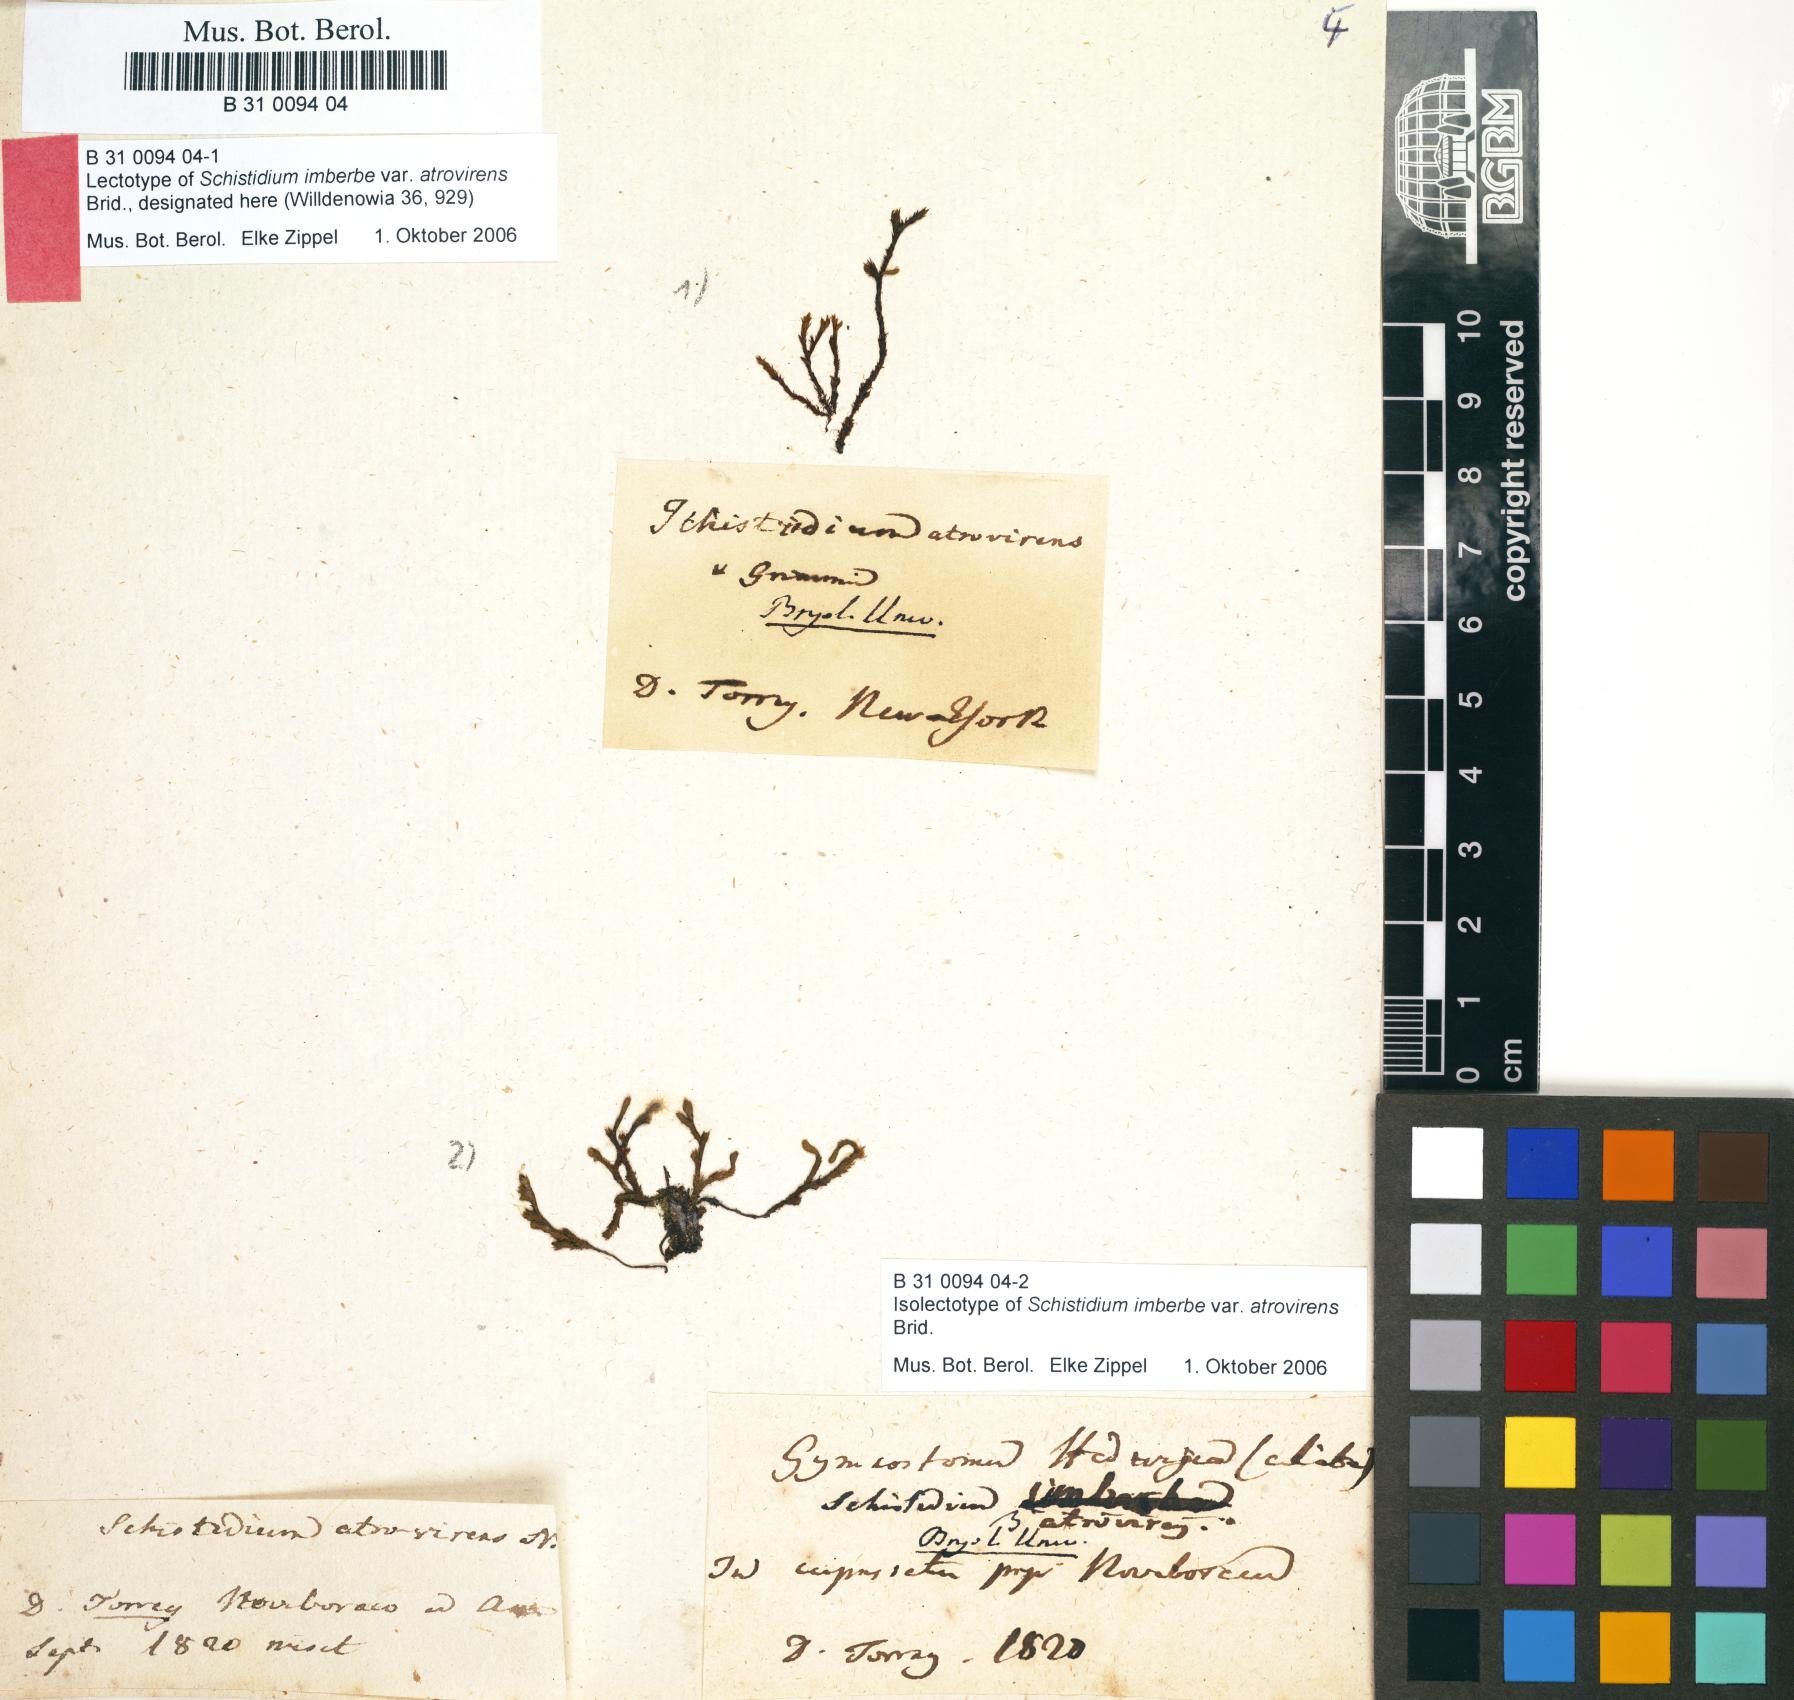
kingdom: Plantae
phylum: Bryophyta
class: Bryopsida
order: Hedwigiales
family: Hedwigiaceae
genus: Hedwigidium
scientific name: Hedwigidium imberbe
